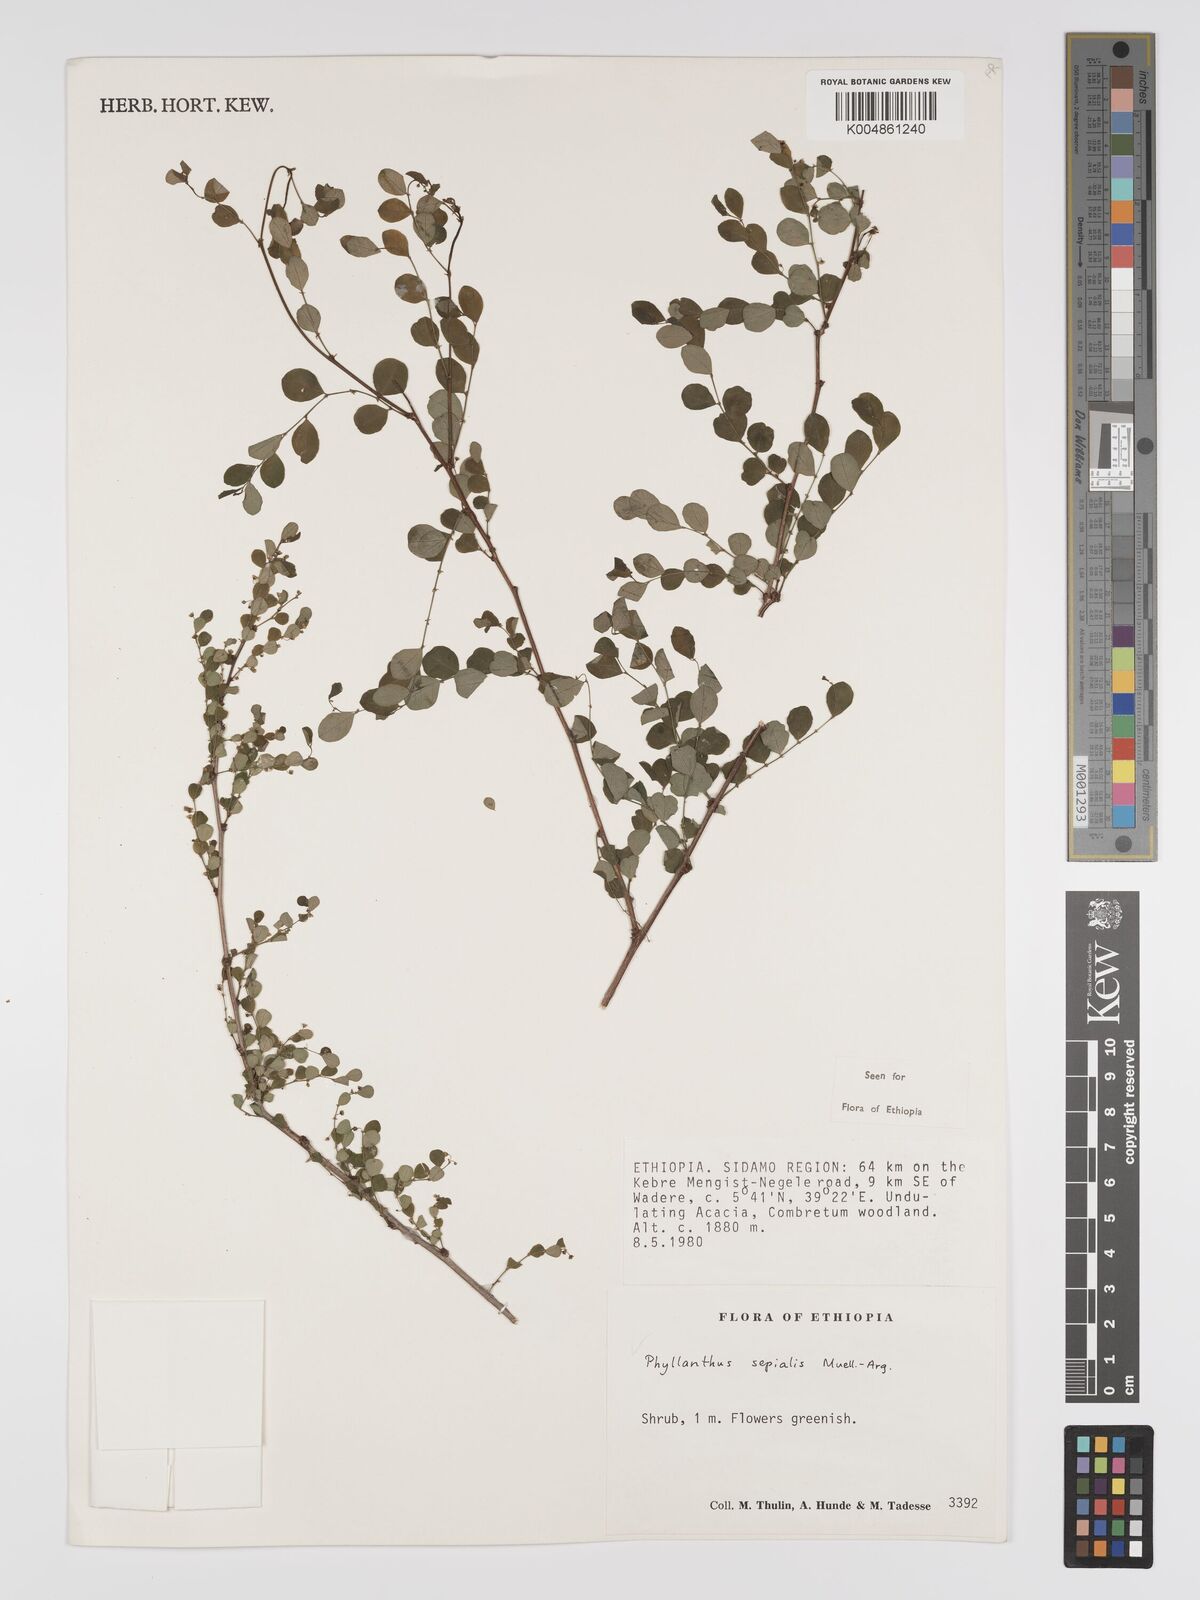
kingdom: Plantae
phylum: Tracheophyta
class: Magnoliopsida
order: Malpighiales
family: Phyllanthaceae
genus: Phyllanthus
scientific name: Phyllanthus sepialis
